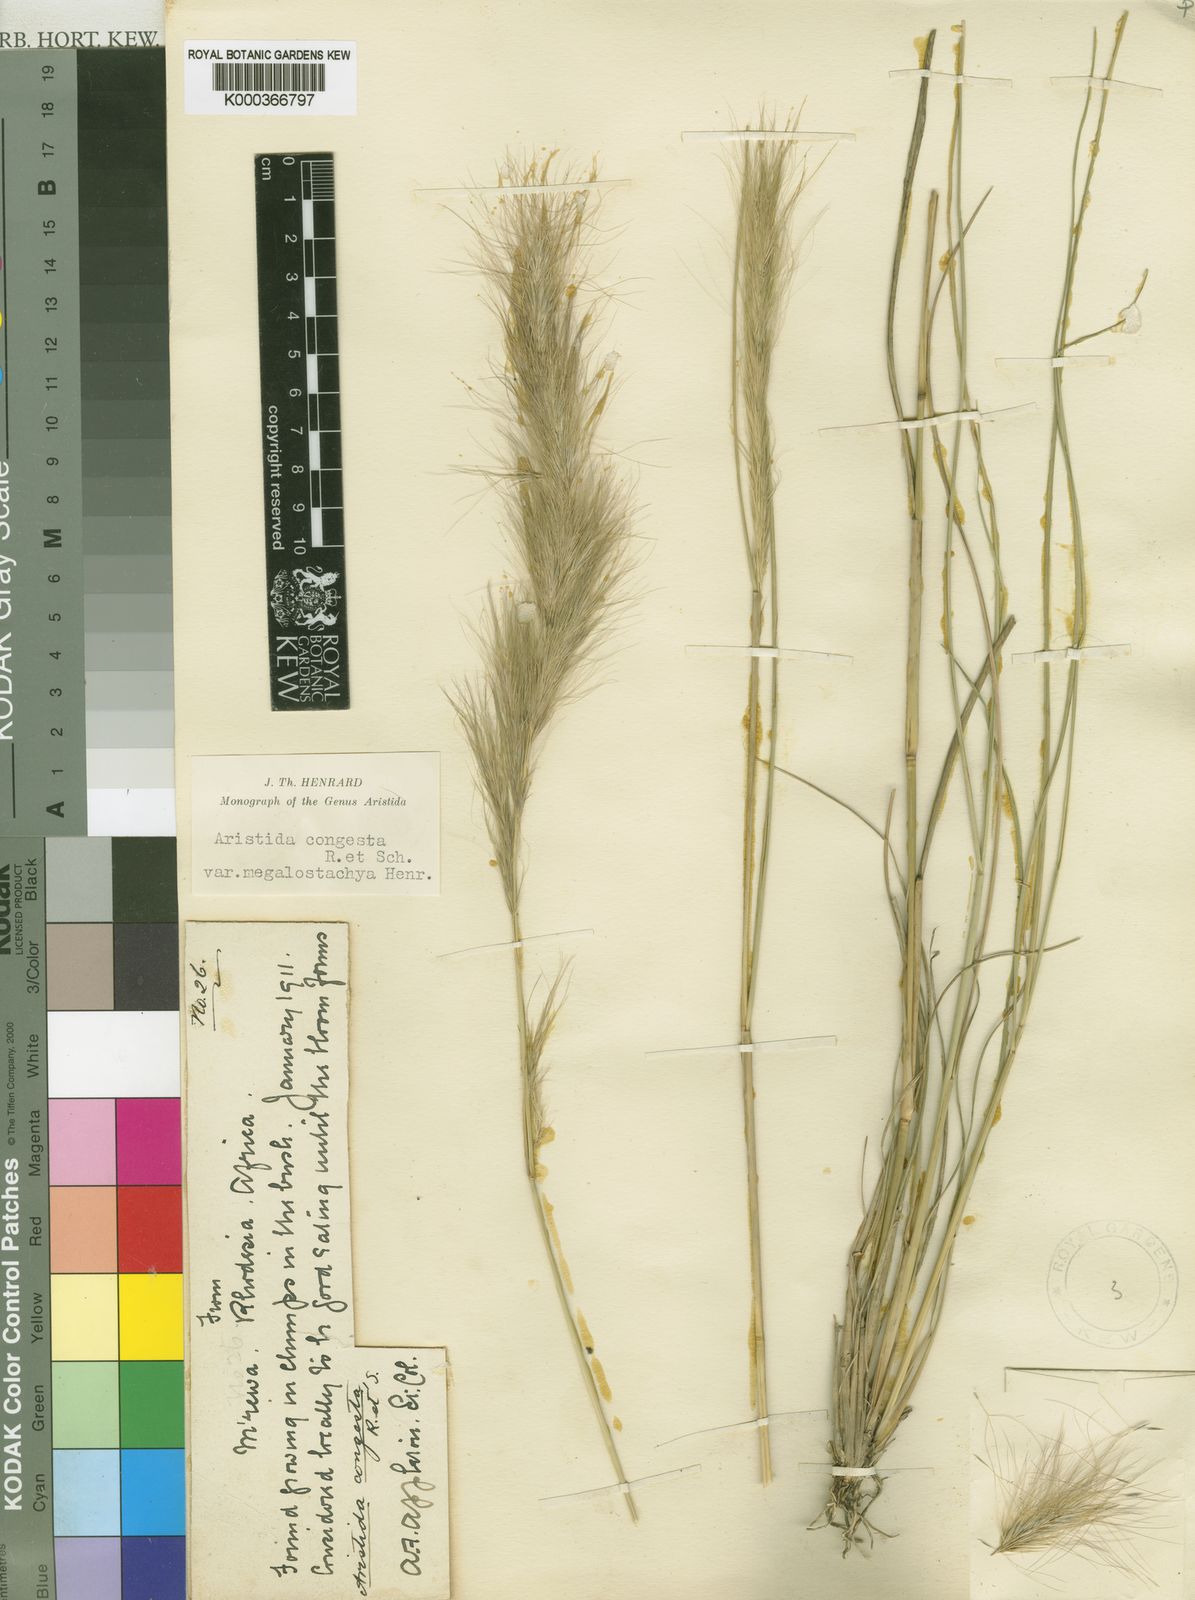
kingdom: Plantae
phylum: Tracheophyta
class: Liliopsida
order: Poales
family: Poaceae
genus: Aristida
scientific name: Aristida congesta
